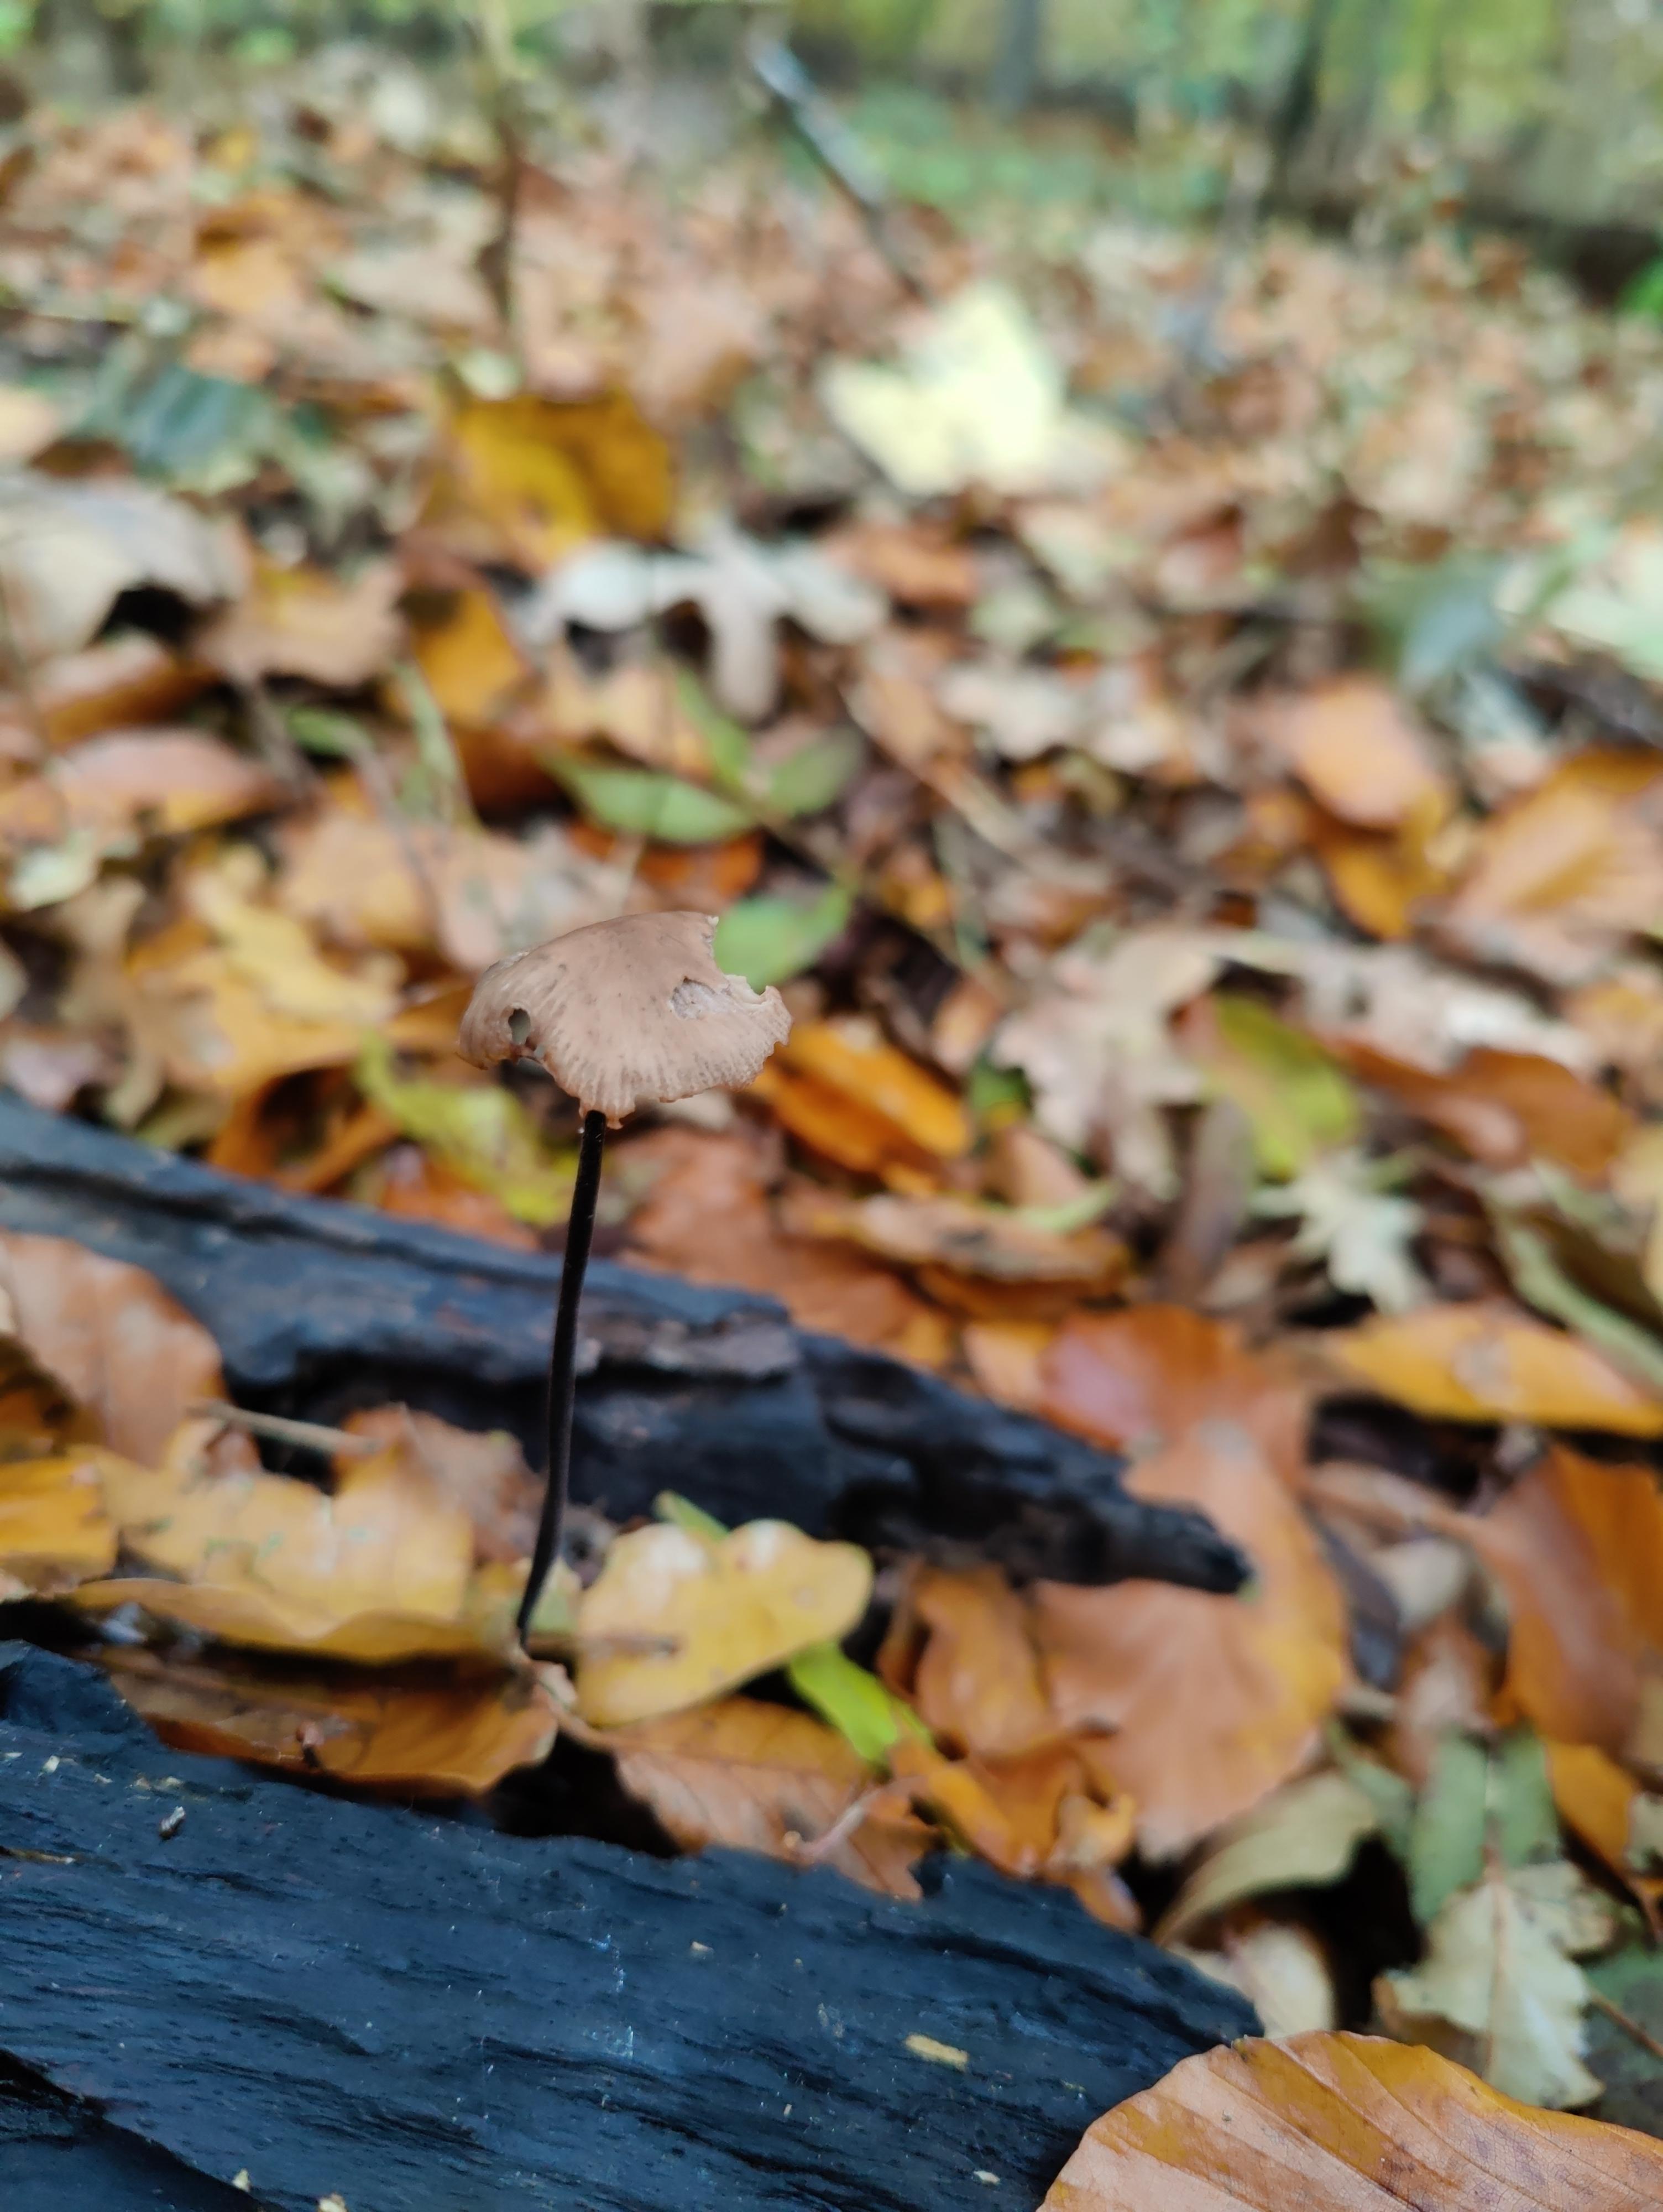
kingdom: Fungi
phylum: Basidiomycota
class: Agaricomycetes
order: Agaricales
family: Omphalotaceae
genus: Mycetinis
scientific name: Mycetinis alliaceus
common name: stor løghat
